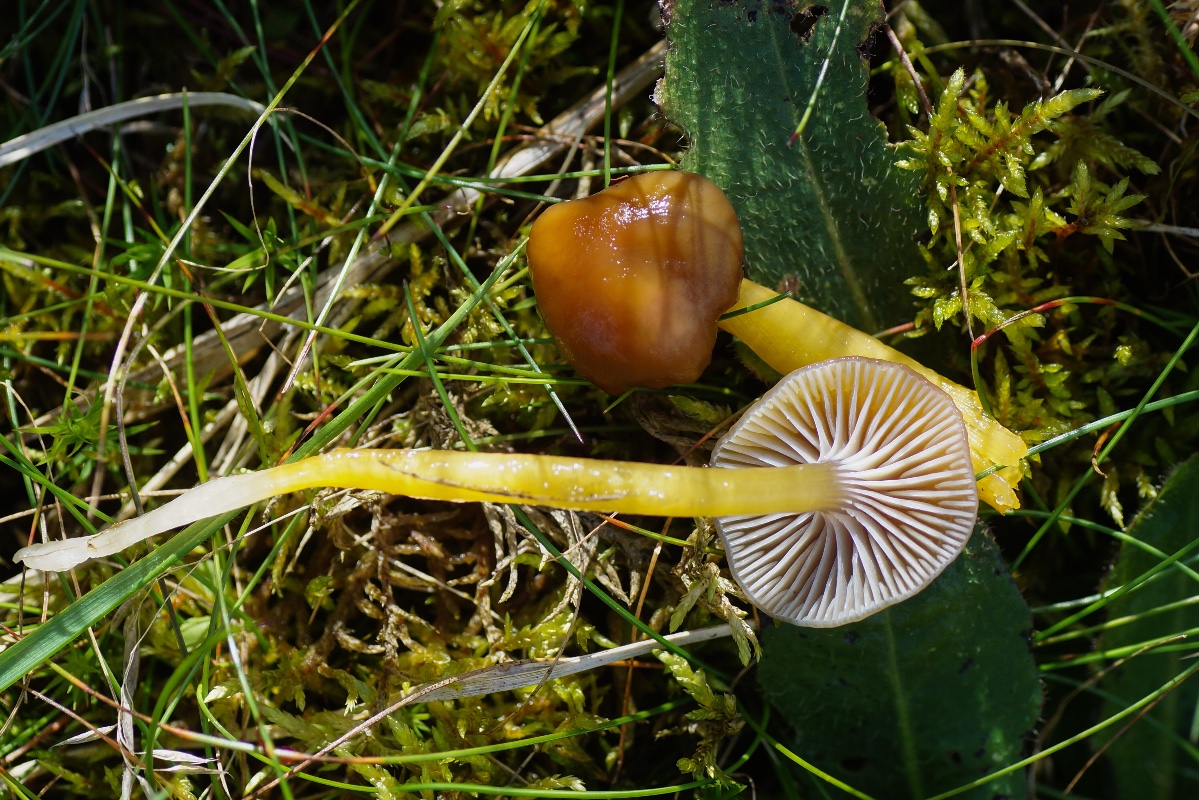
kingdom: Fungi
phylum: Basidiomycota
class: Agaricomycetes
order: Agaricales
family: Hygrophoraceae
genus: Gliophorus
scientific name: Gliophorus laetus
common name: brusk-vokshat
